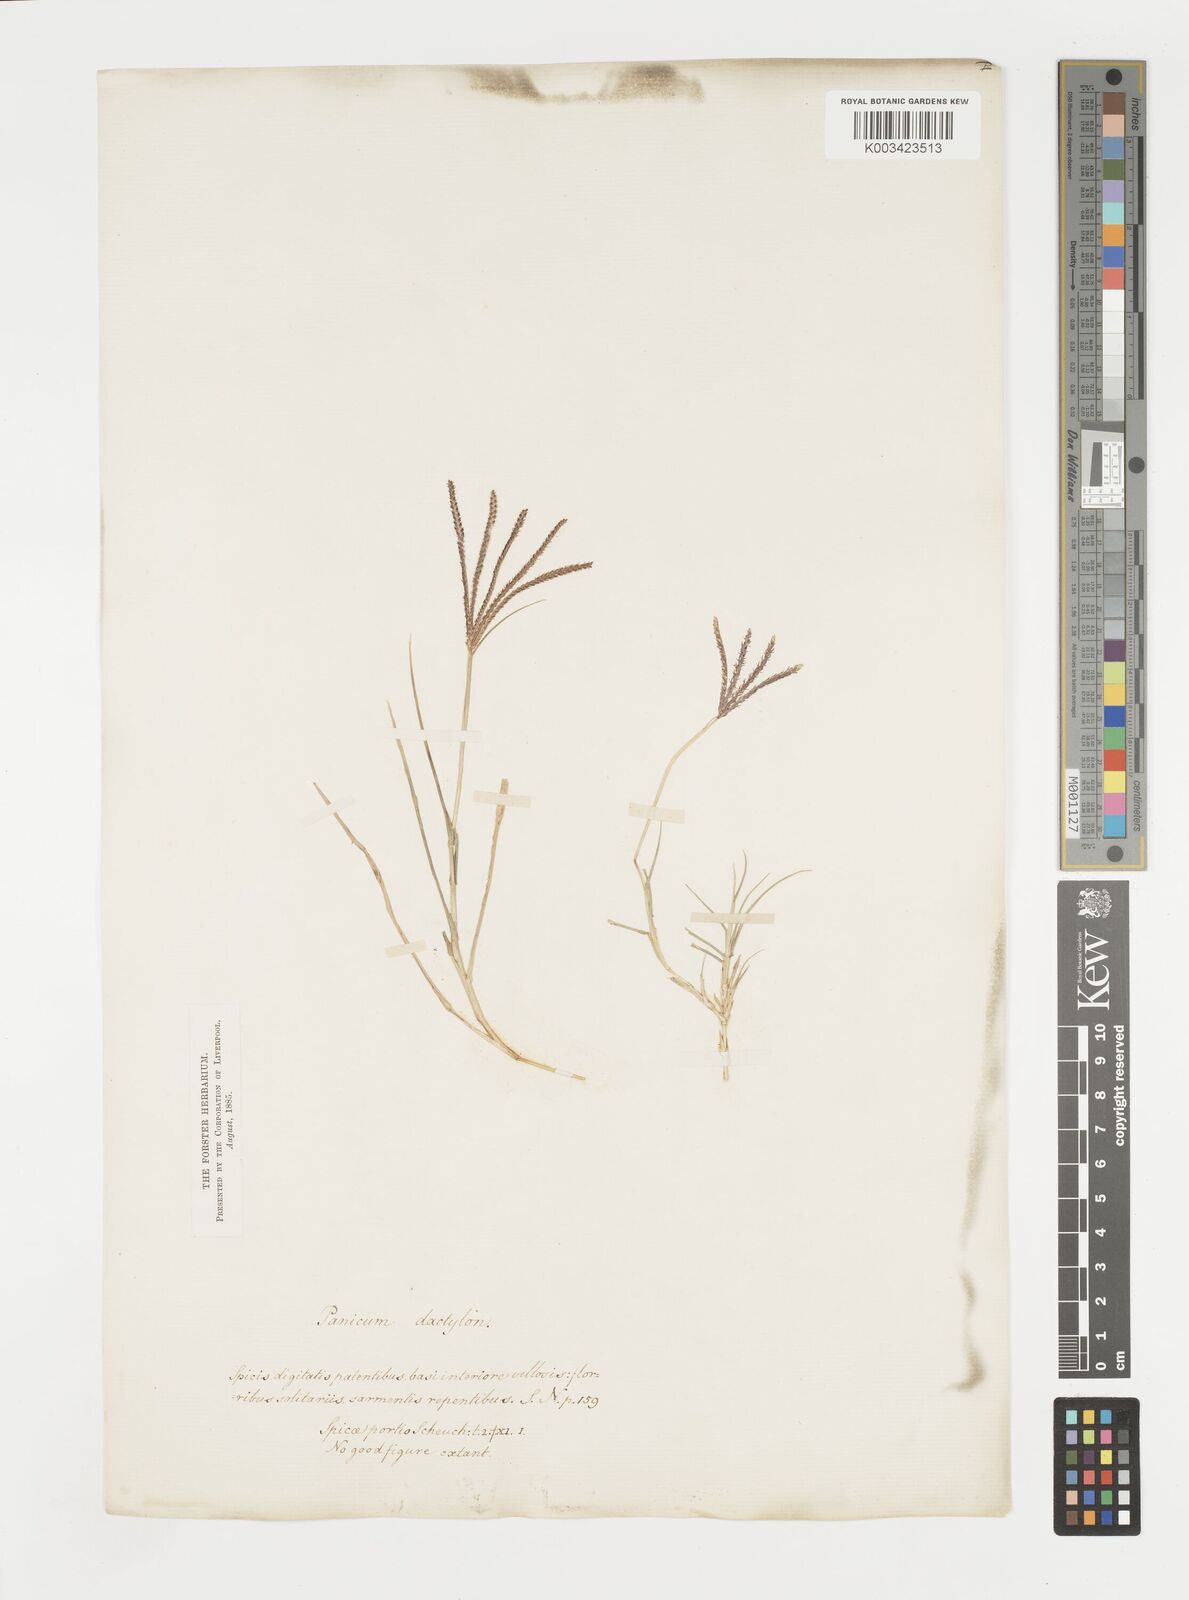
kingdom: Plantae
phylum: Tracheophyta
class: Liliopsida
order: Poales
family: Poaceae
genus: Cynodon
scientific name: Cynodon dactylon
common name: Bermuda grass
